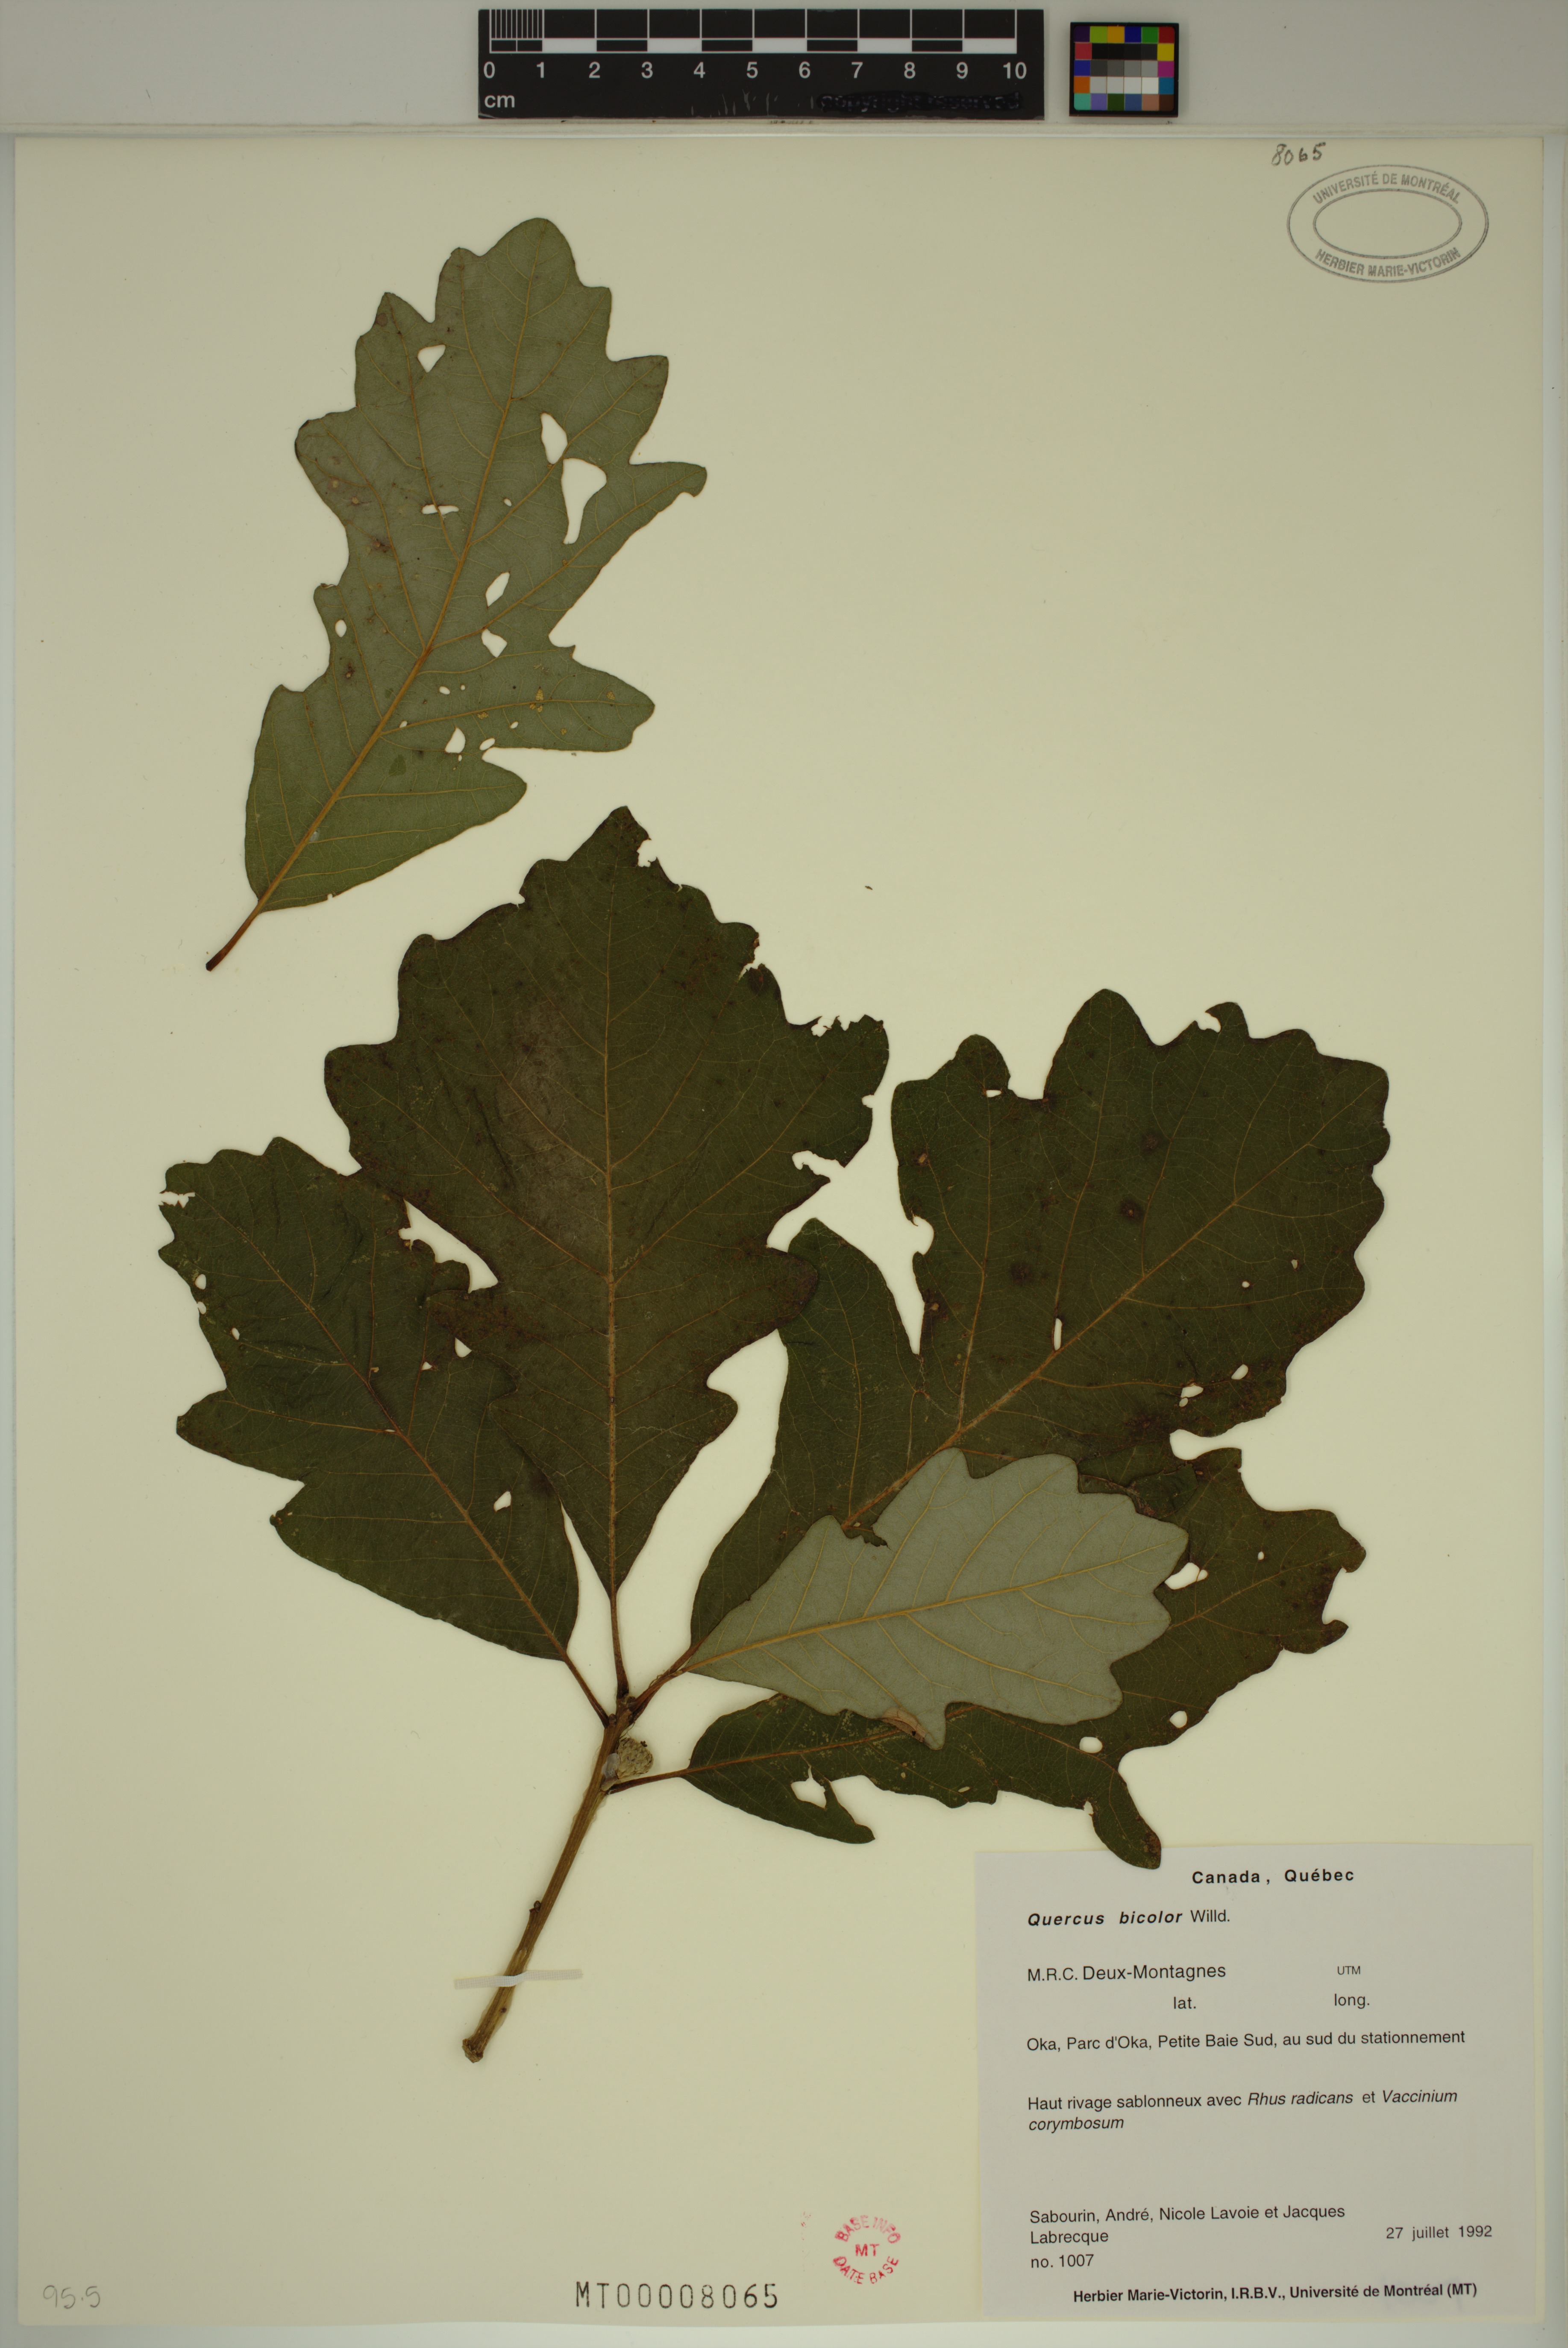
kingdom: Plantae
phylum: Tracheophyta
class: Magnoliopsida
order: Fagales
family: Fagaceae
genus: Quercus
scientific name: Quercus bicolor
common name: Swamp white oak
